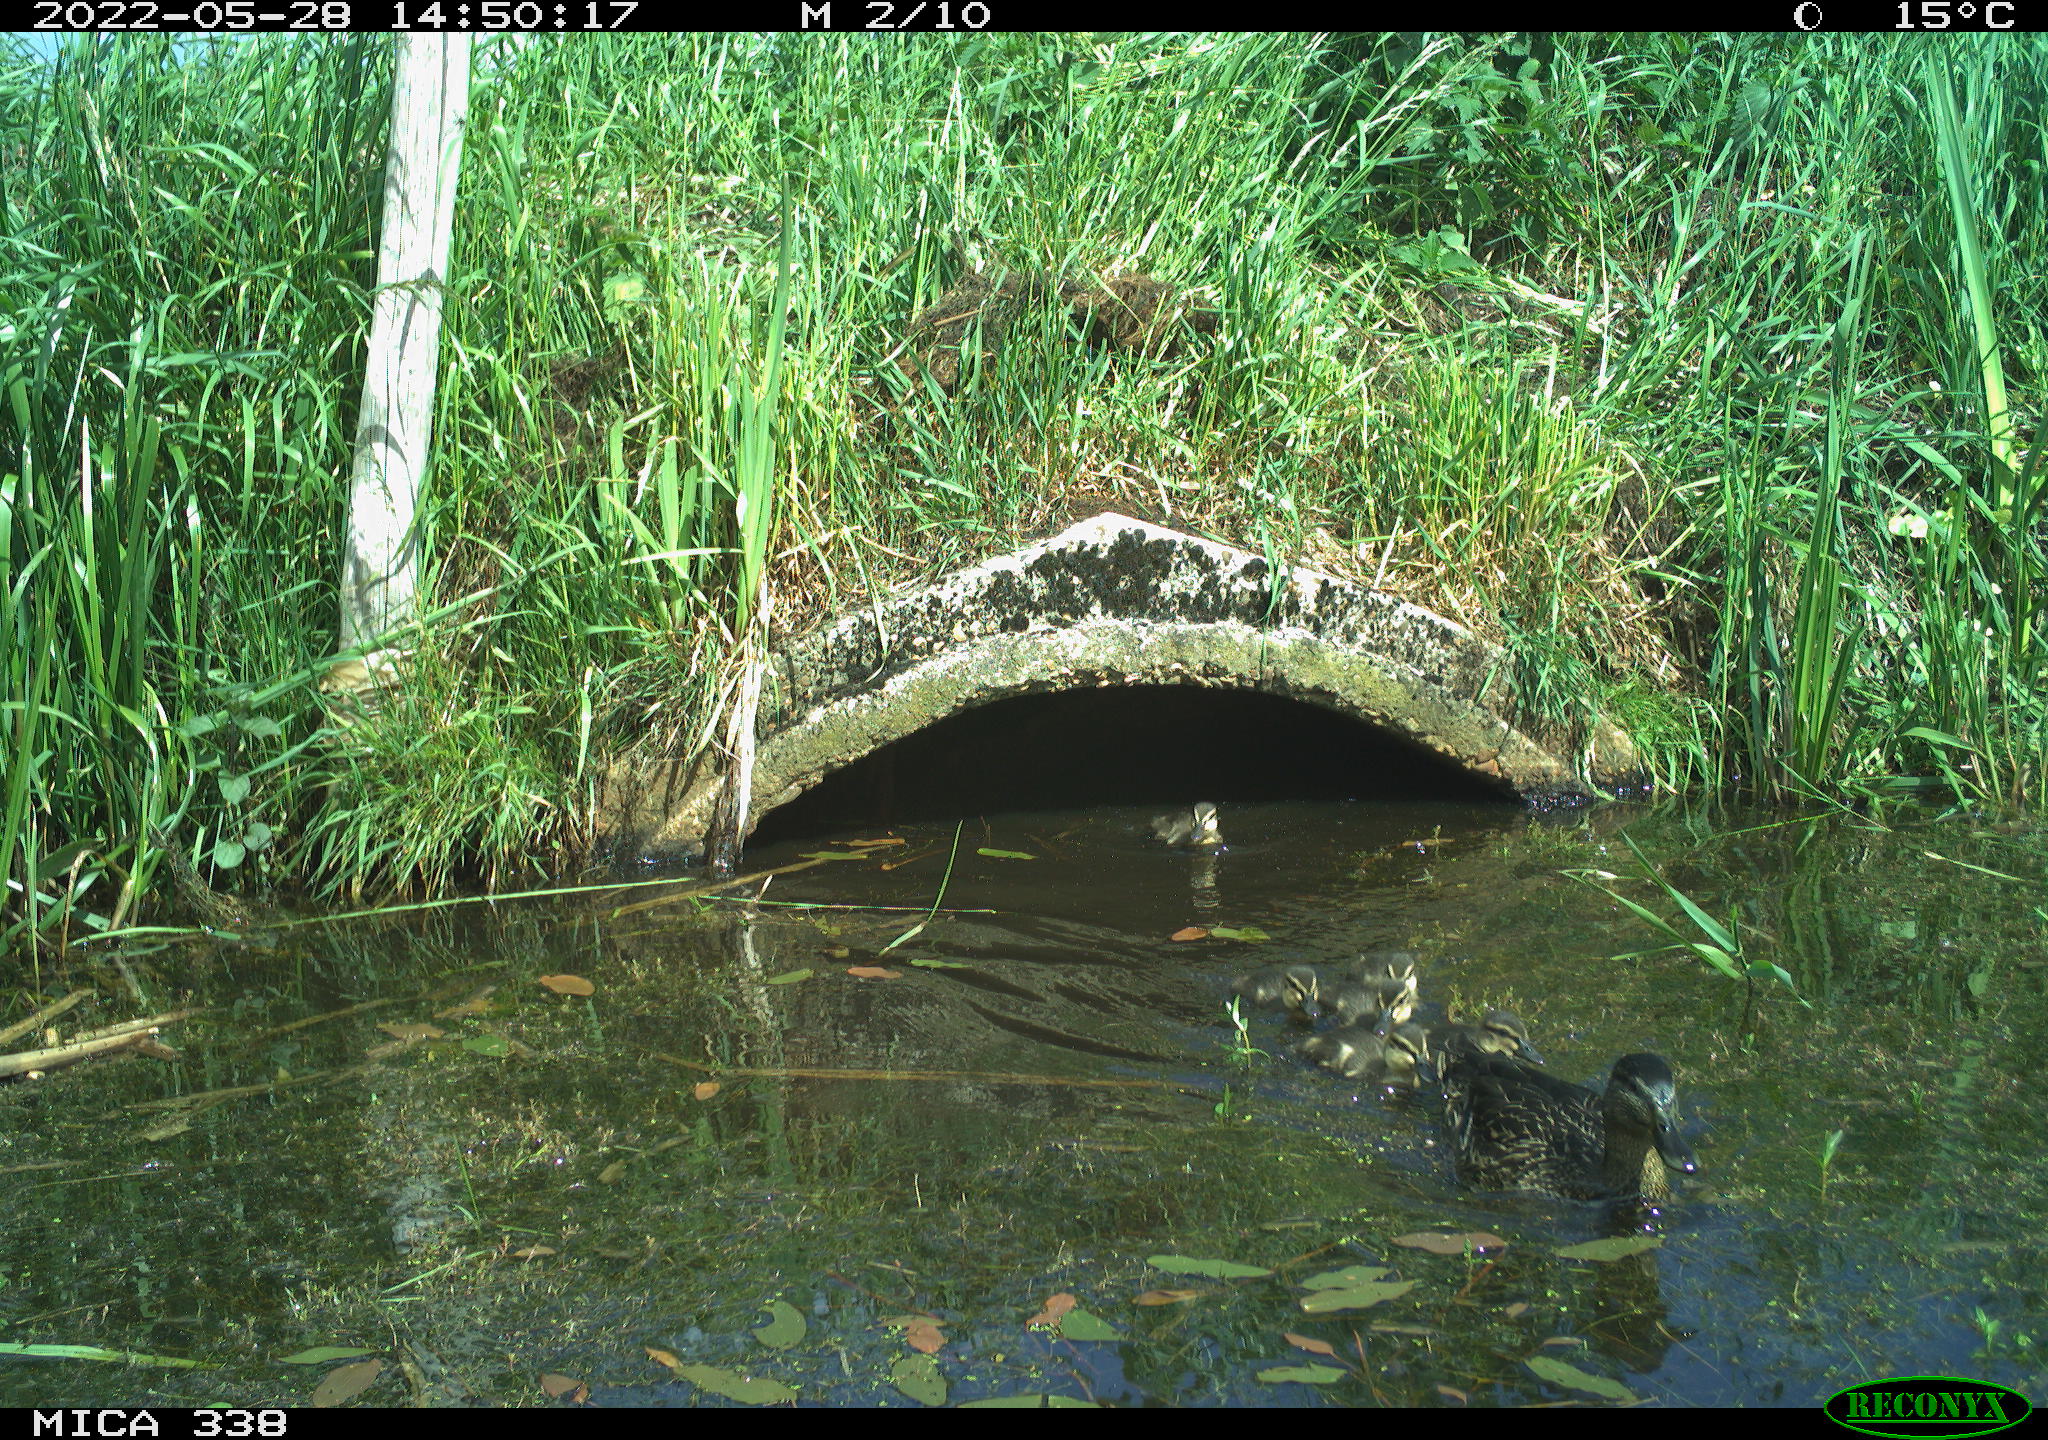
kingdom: Animalia
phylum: Chordata
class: Aves
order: Anseriformes
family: Anatidae
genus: Anas
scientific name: Anas platyrhynchos
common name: Mallard
